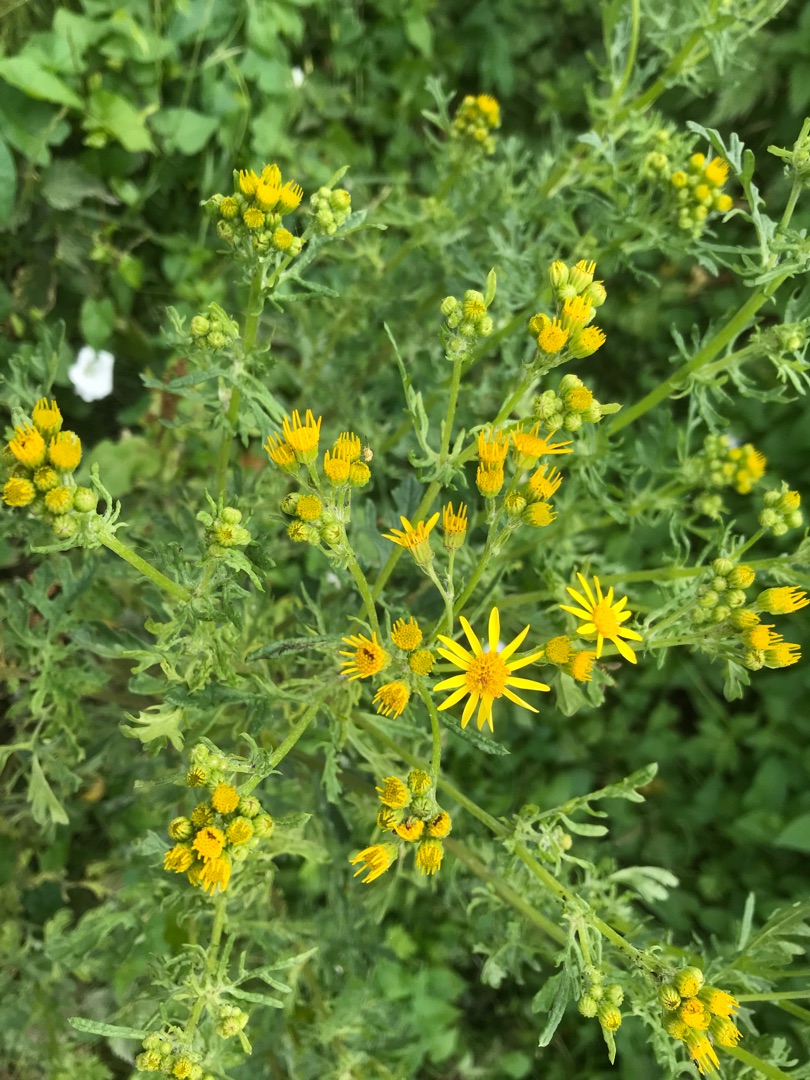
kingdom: Plantae
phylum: Tracheophyta
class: Magnoliopsida
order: Asterales
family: Asteraceae
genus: Jacobaea
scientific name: Jacobaea vulgaris
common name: Eng-brandbæger
